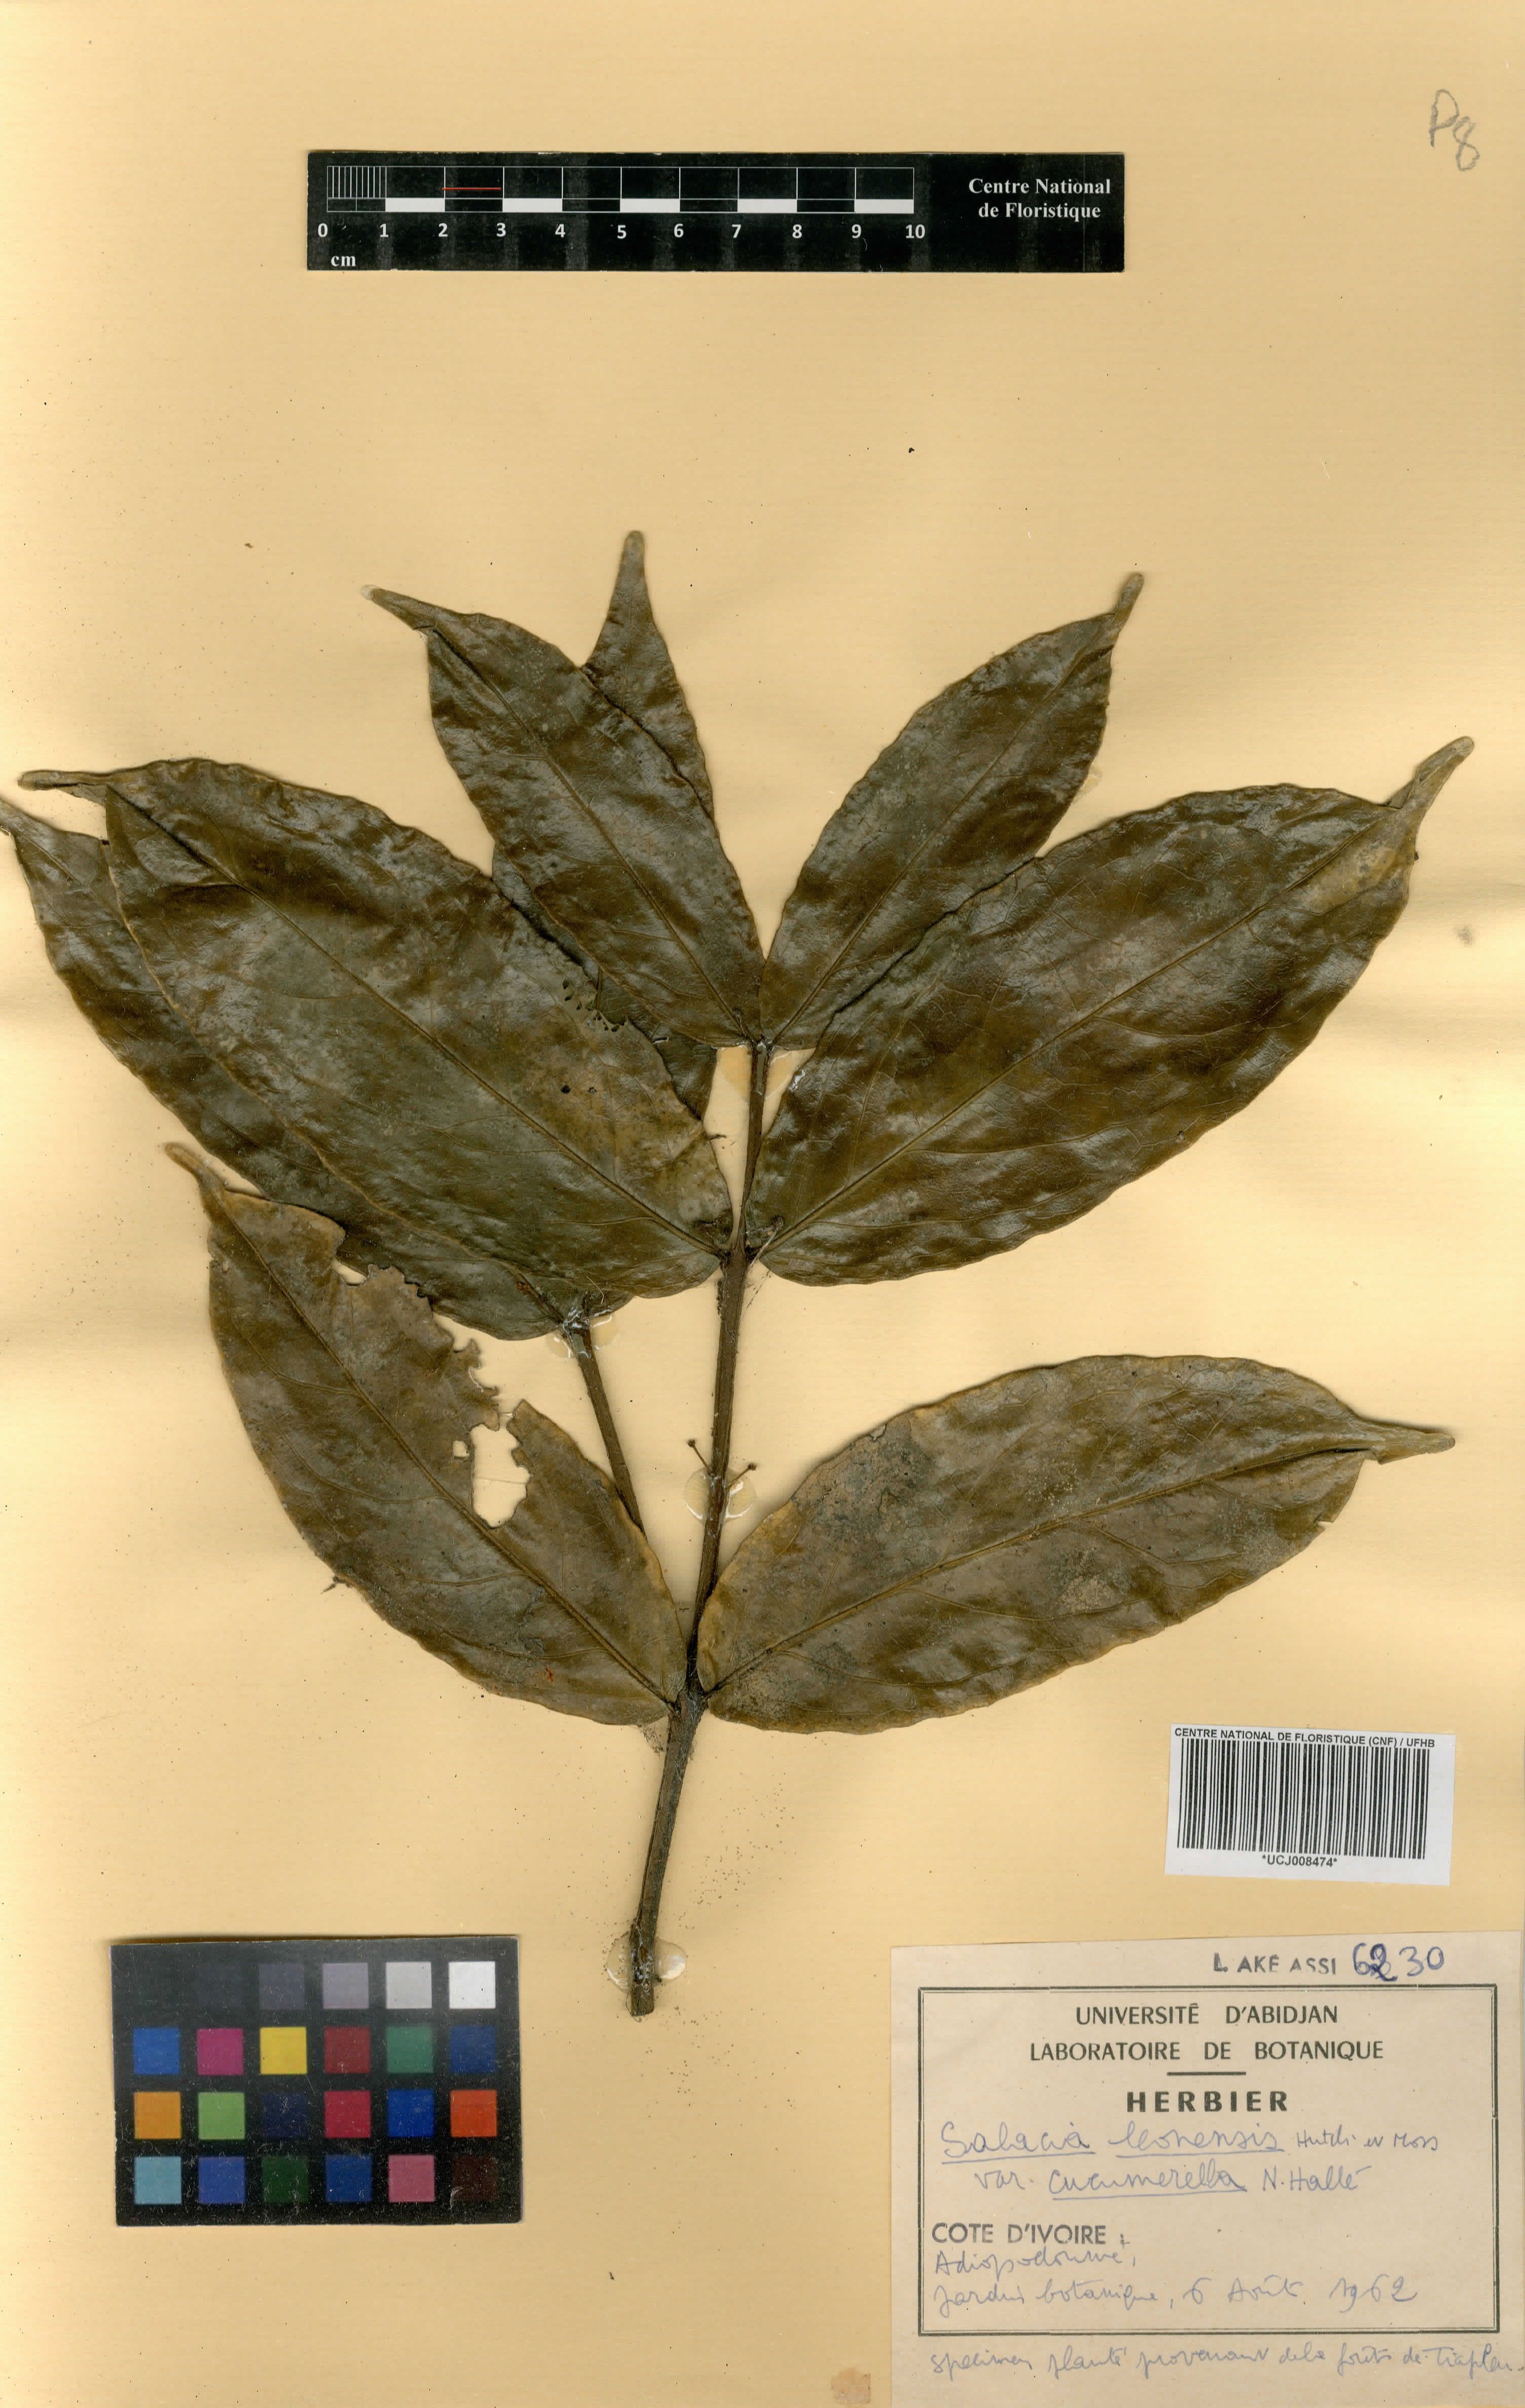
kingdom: Plantae
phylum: Tracheophyta
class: Magnoliopsida
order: Celastrales
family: Celastraceae
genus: Salacia
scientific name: Salacia lehmbachii
